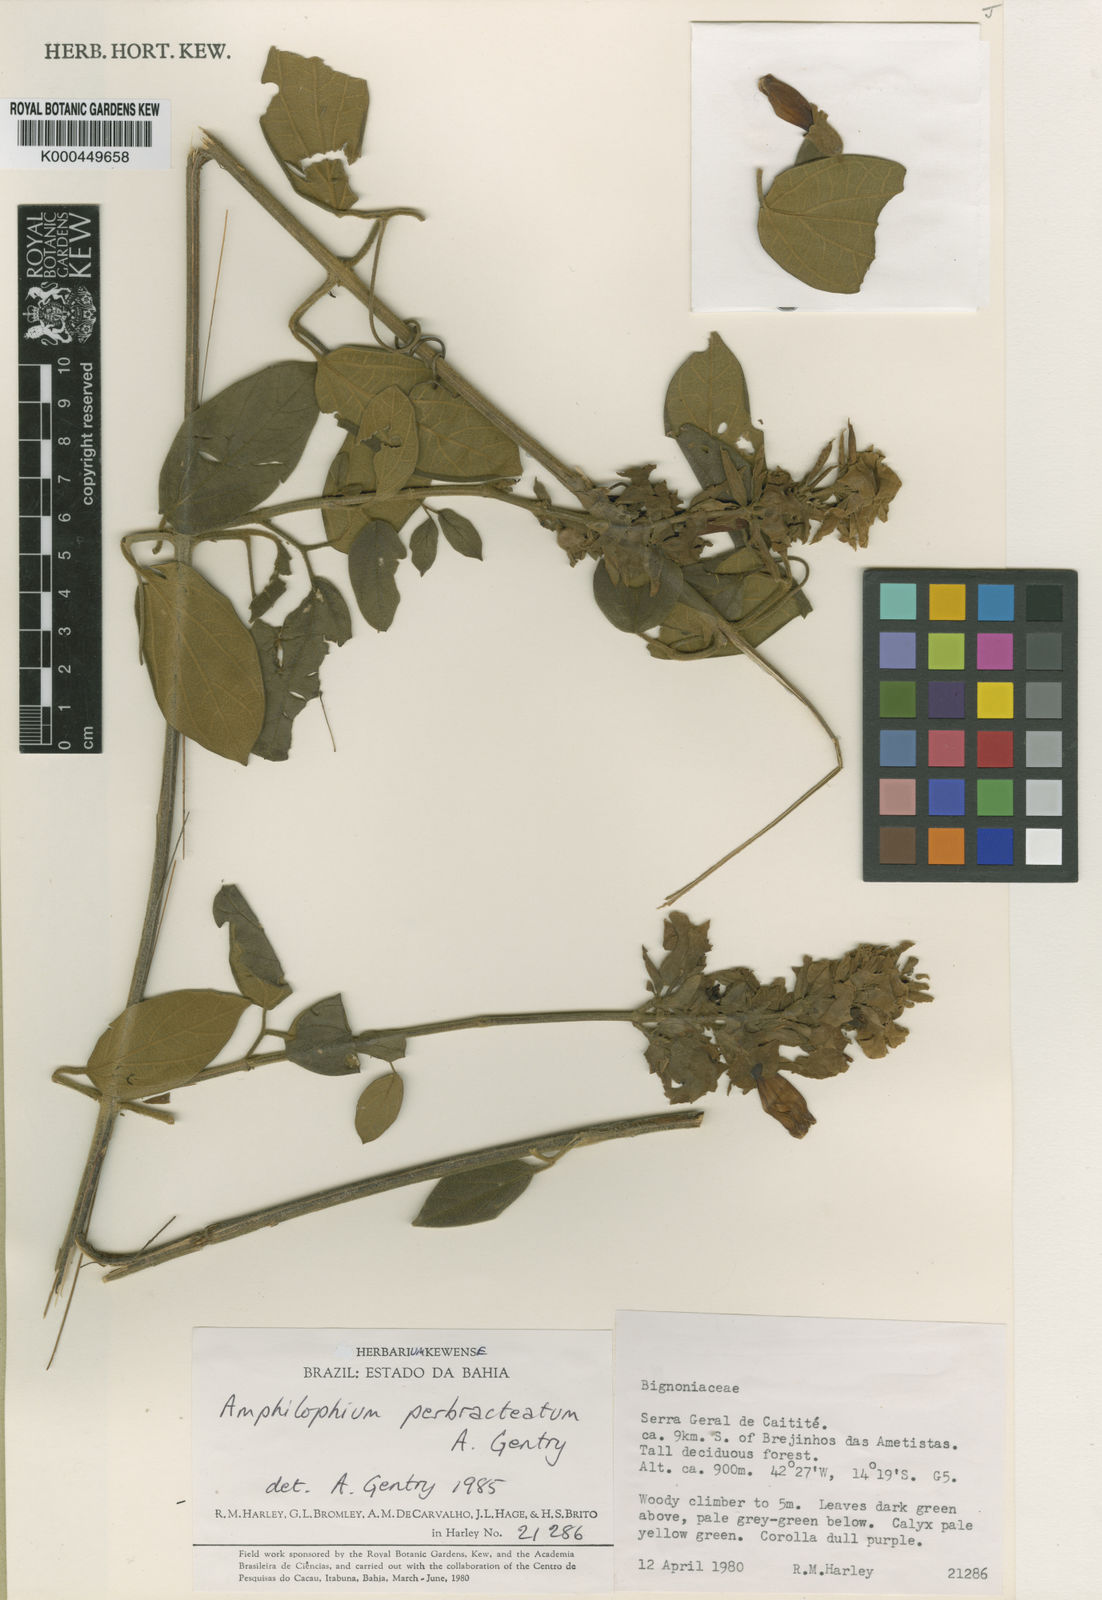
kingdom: Plantae
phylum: Tracheophyta
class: Magnoliopsida
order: Lamiales
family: Bignoniaceae
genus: Amphilophium
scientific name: Amphilophium perbracteatum
